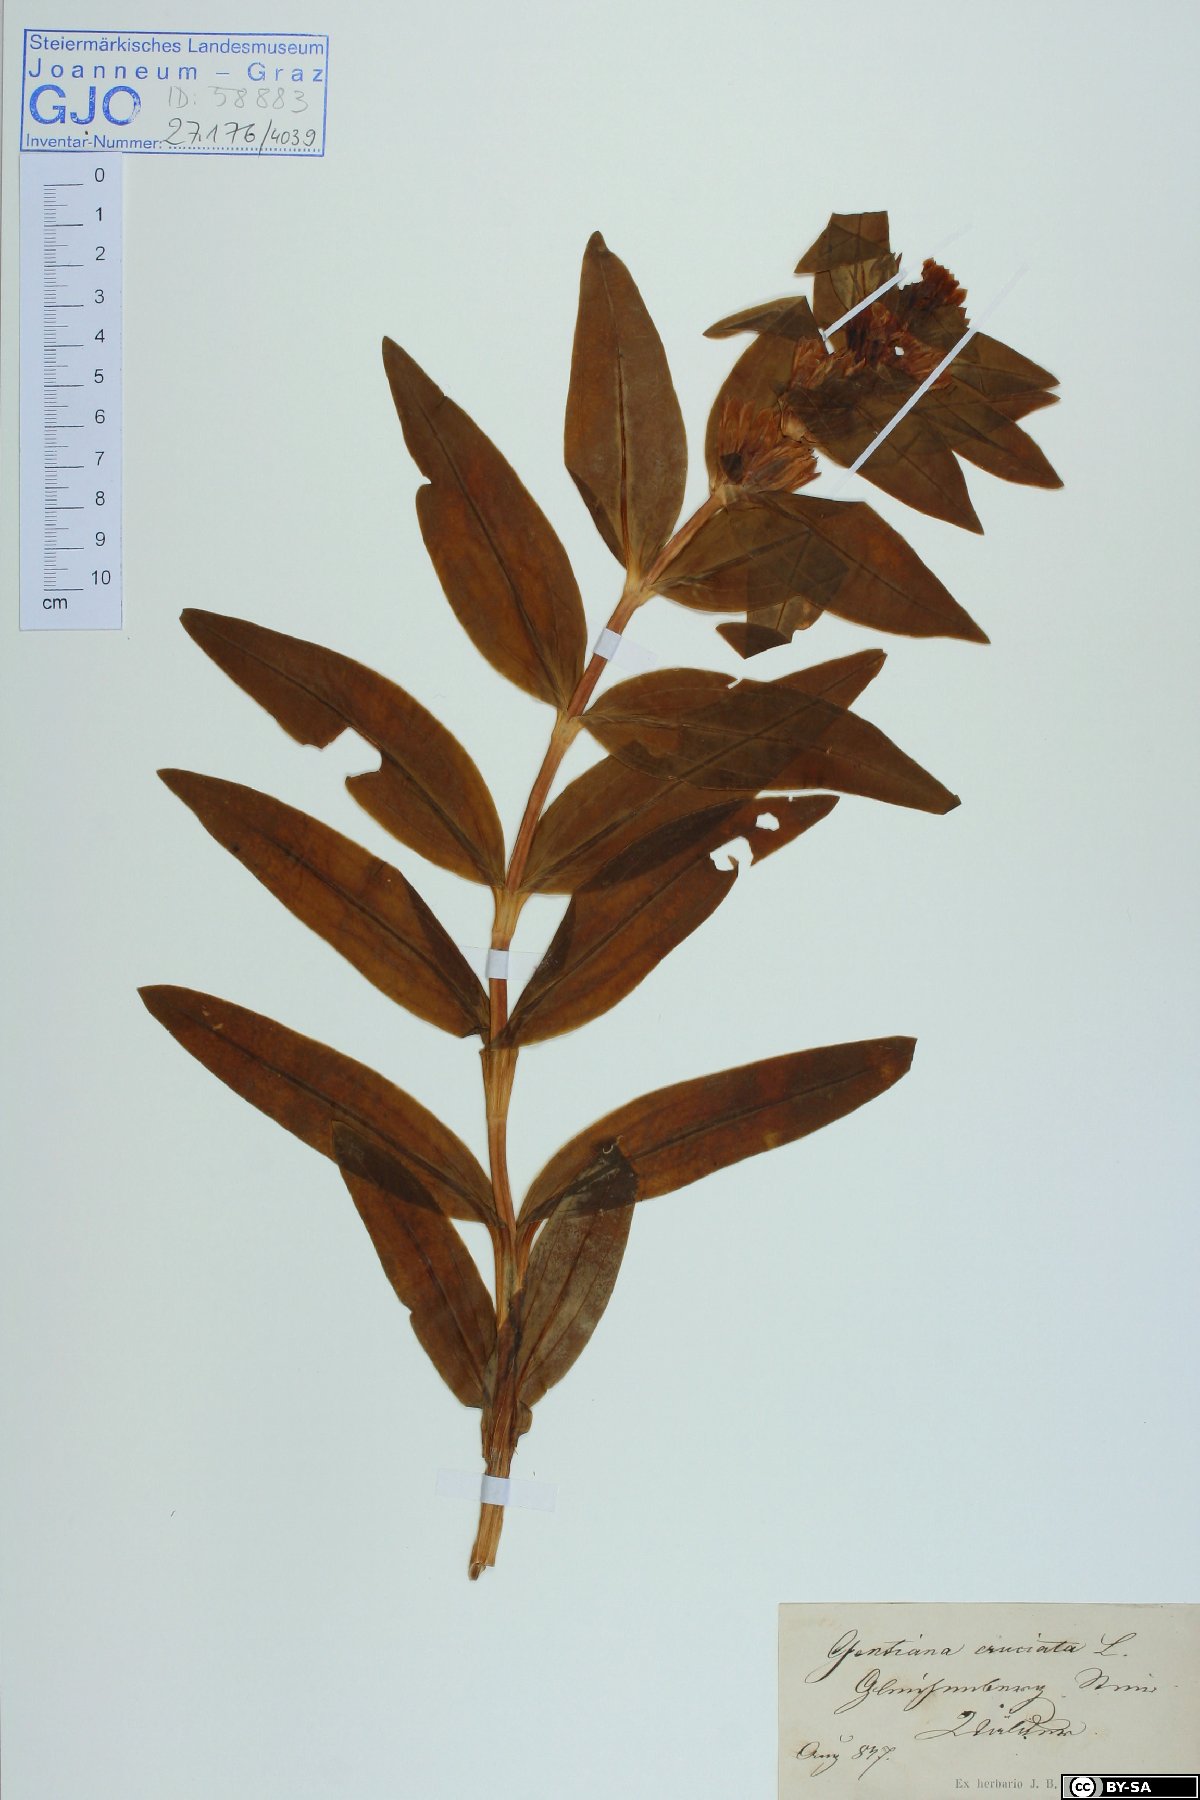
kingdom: Plantae
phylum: Tracheophyta
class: Magnoliopsida
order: Gentianales
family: Gentianaceae
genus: Gentiana
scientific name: Gentiana cruciata
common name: Cross gentian
